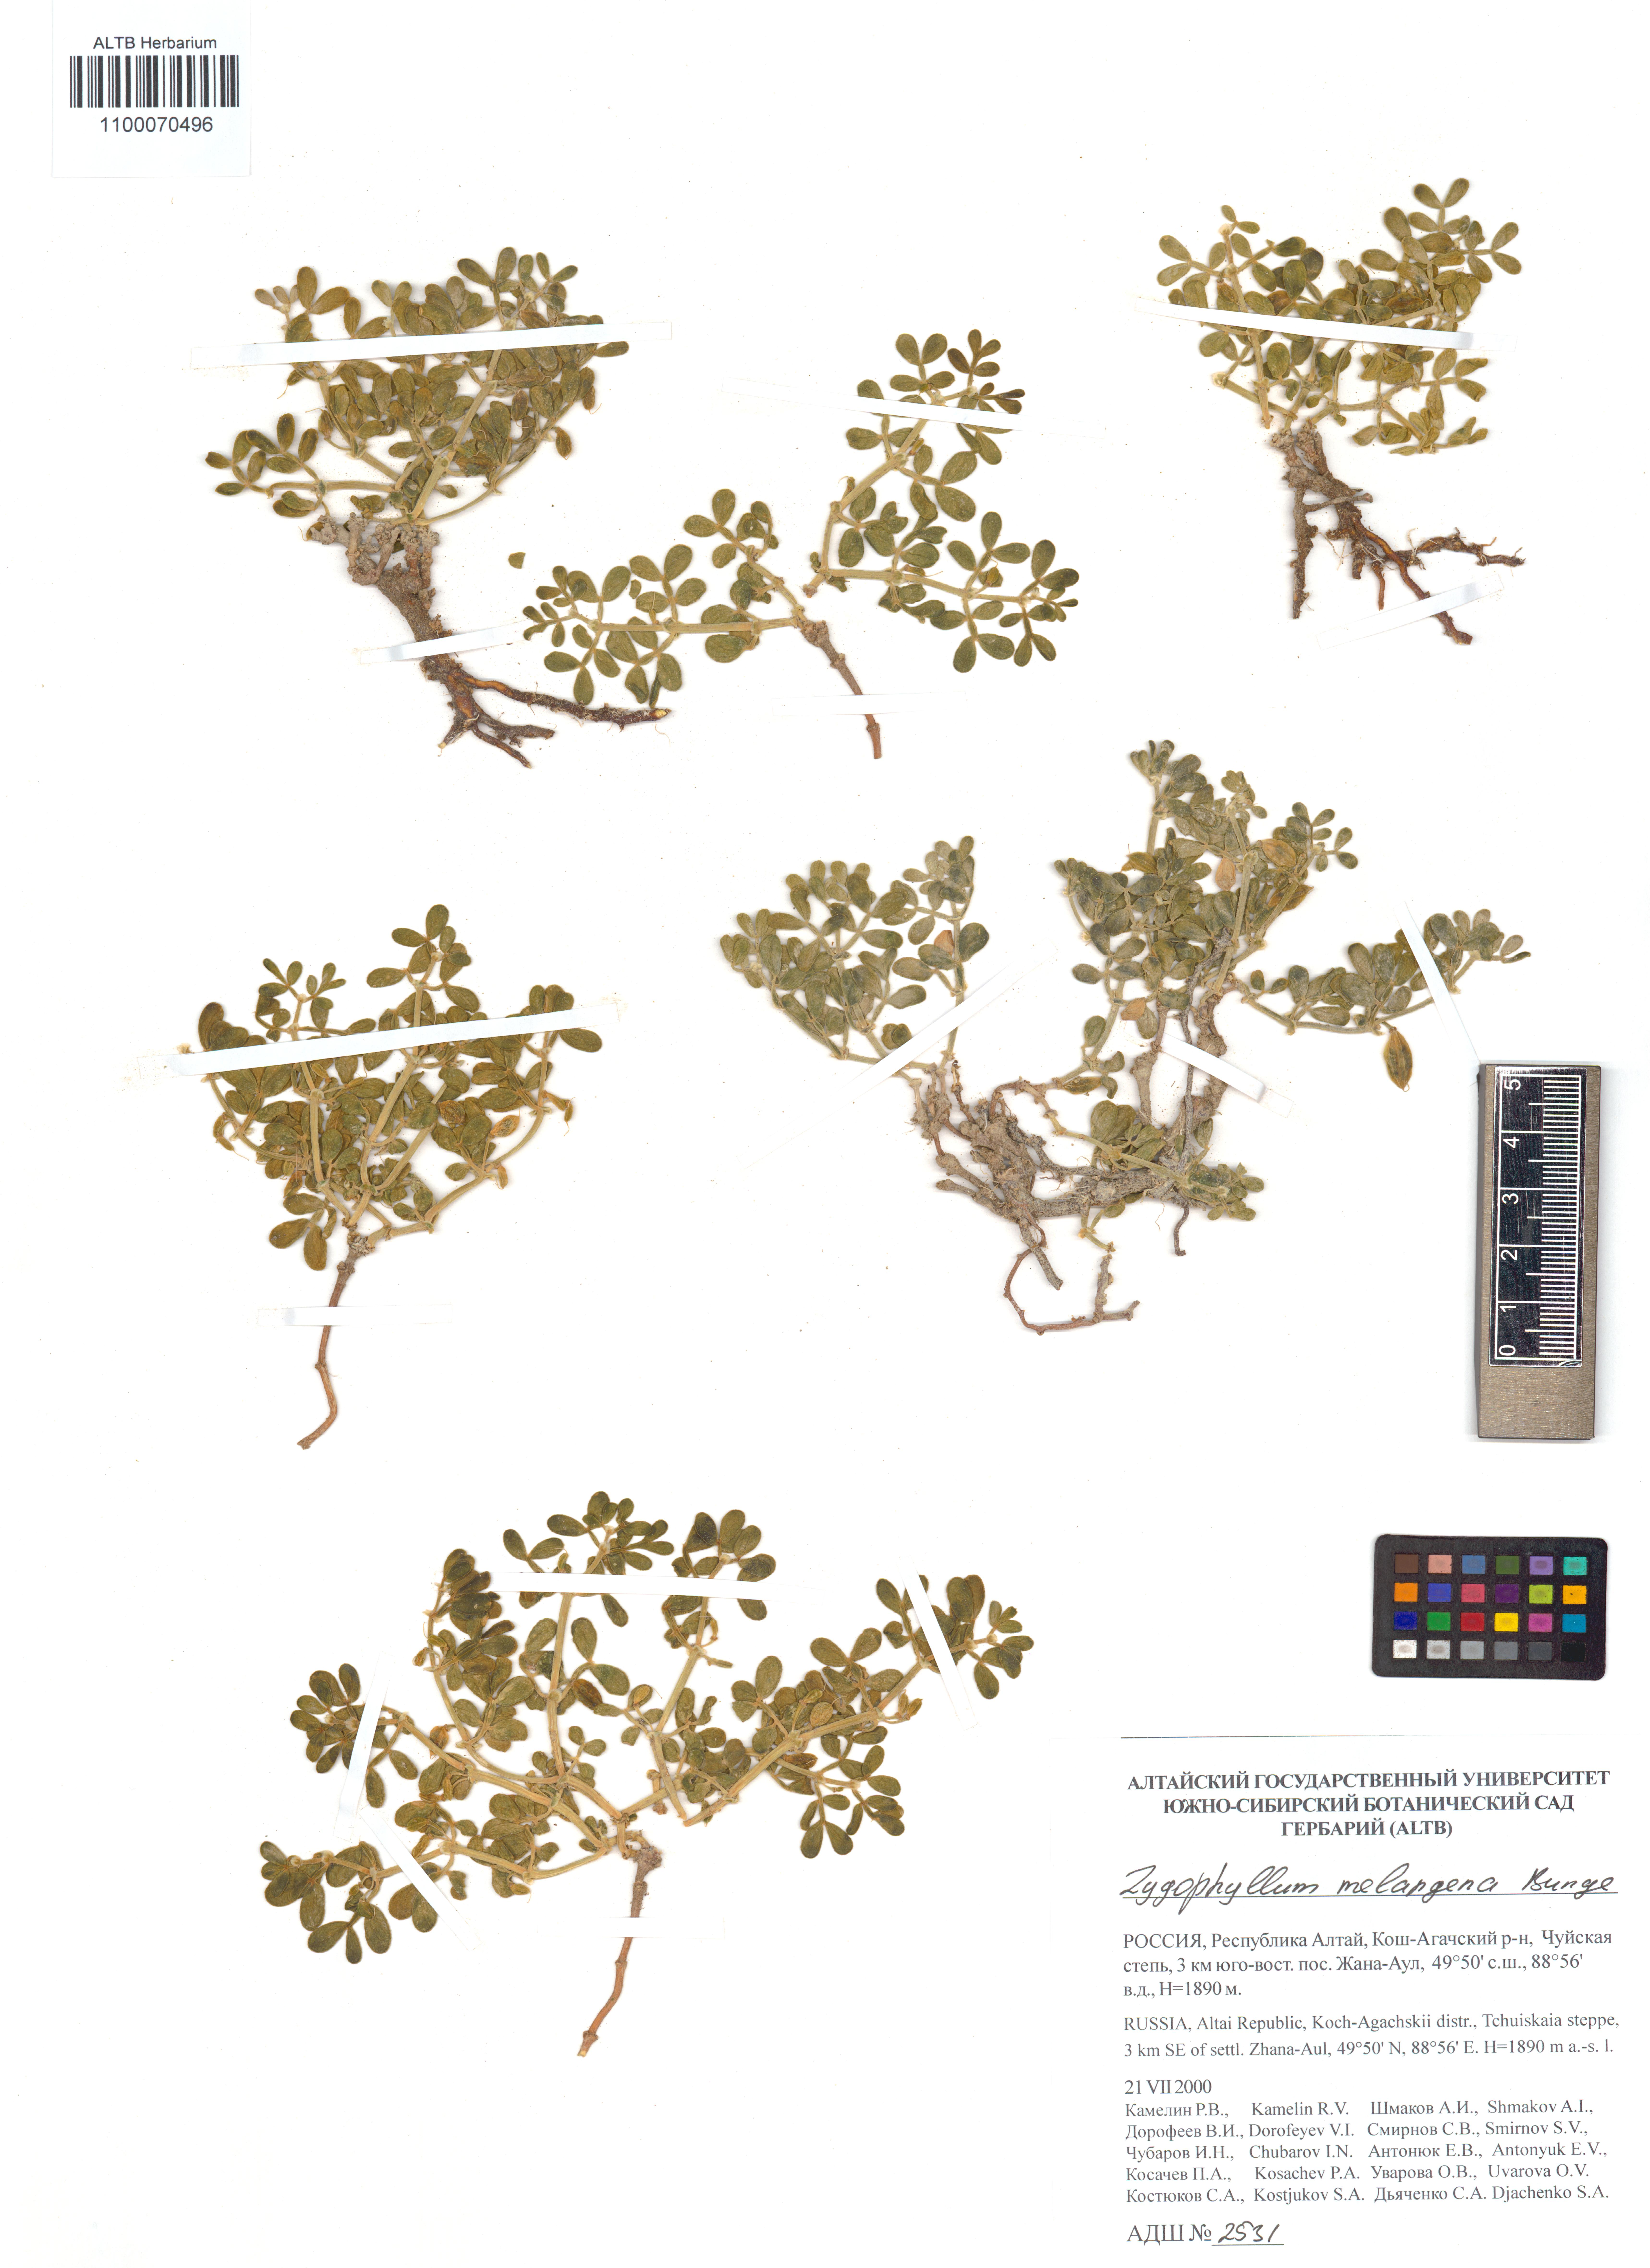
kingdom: Plantae
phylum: Tracheophyta
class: Magnoliopsida
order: Zygophyllales
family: Zygophyllaceae
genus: Zygophyllum
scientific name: Zygophyllum melongena
